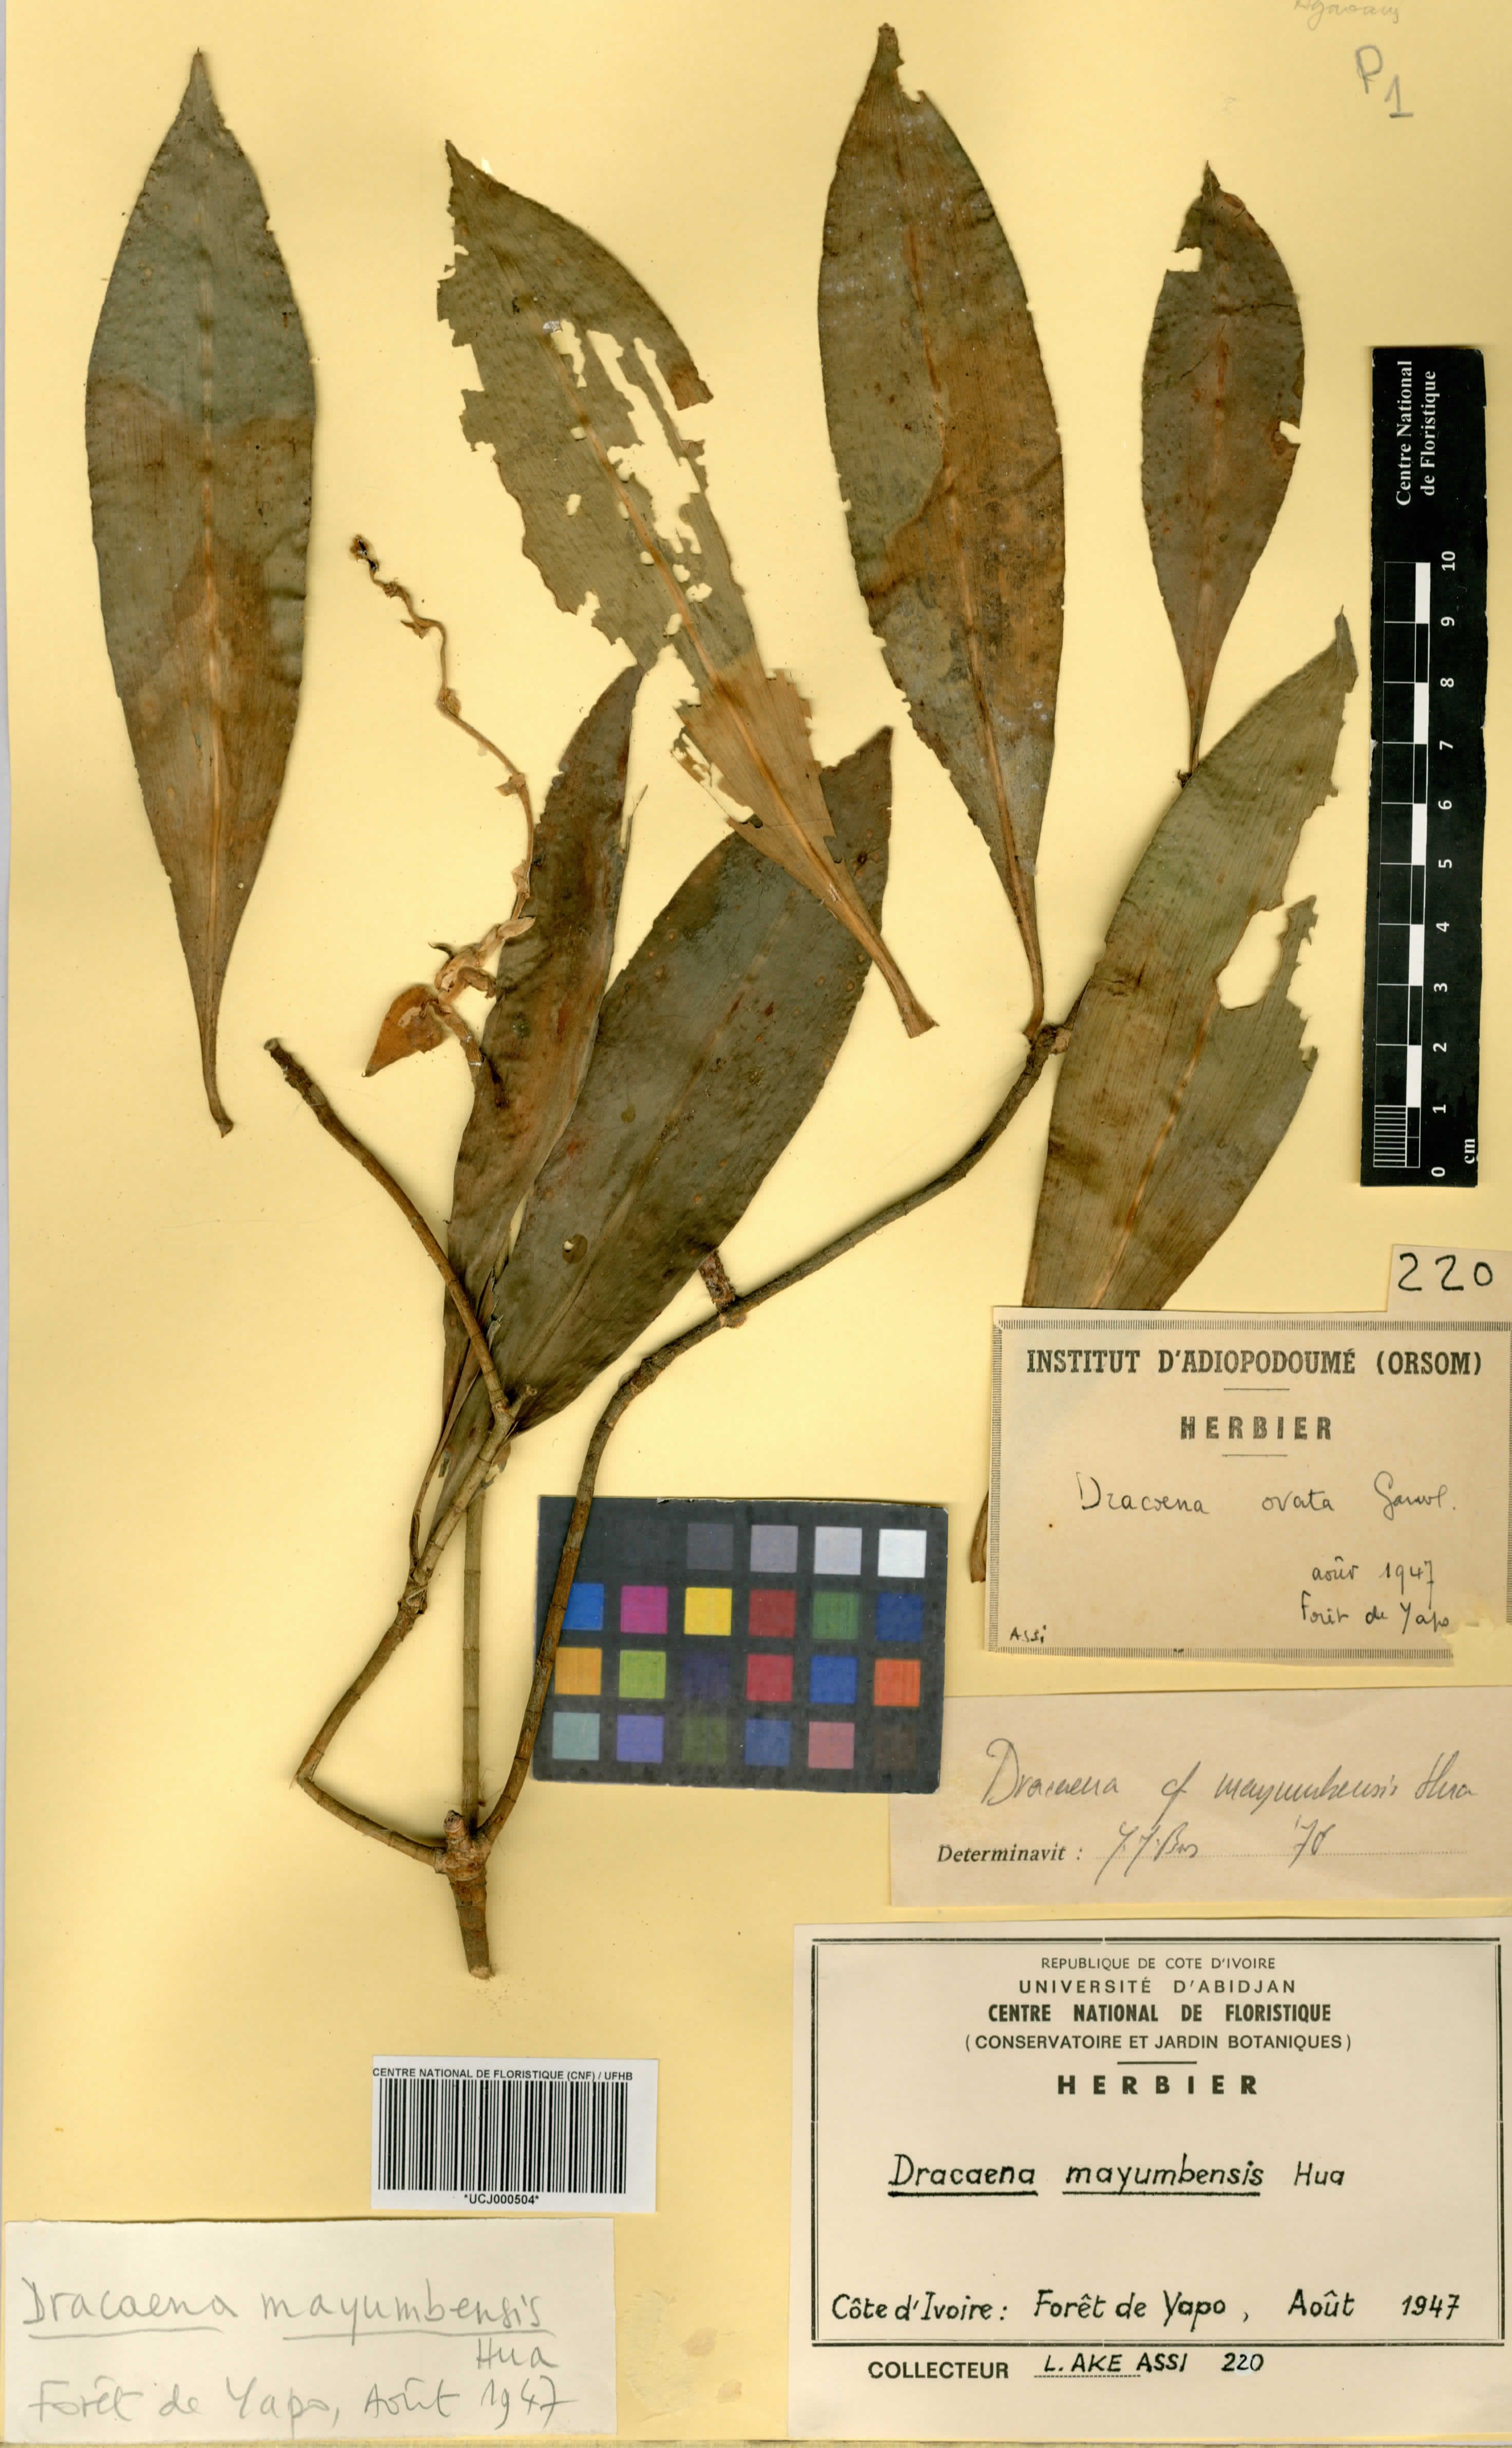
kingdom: Plantae
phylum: Tracheophyta
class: Liliopsida
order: Asparagales
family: Asparagaceae
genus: Dracaena
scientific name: Dracaena camerooniana
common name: Dragon tree
